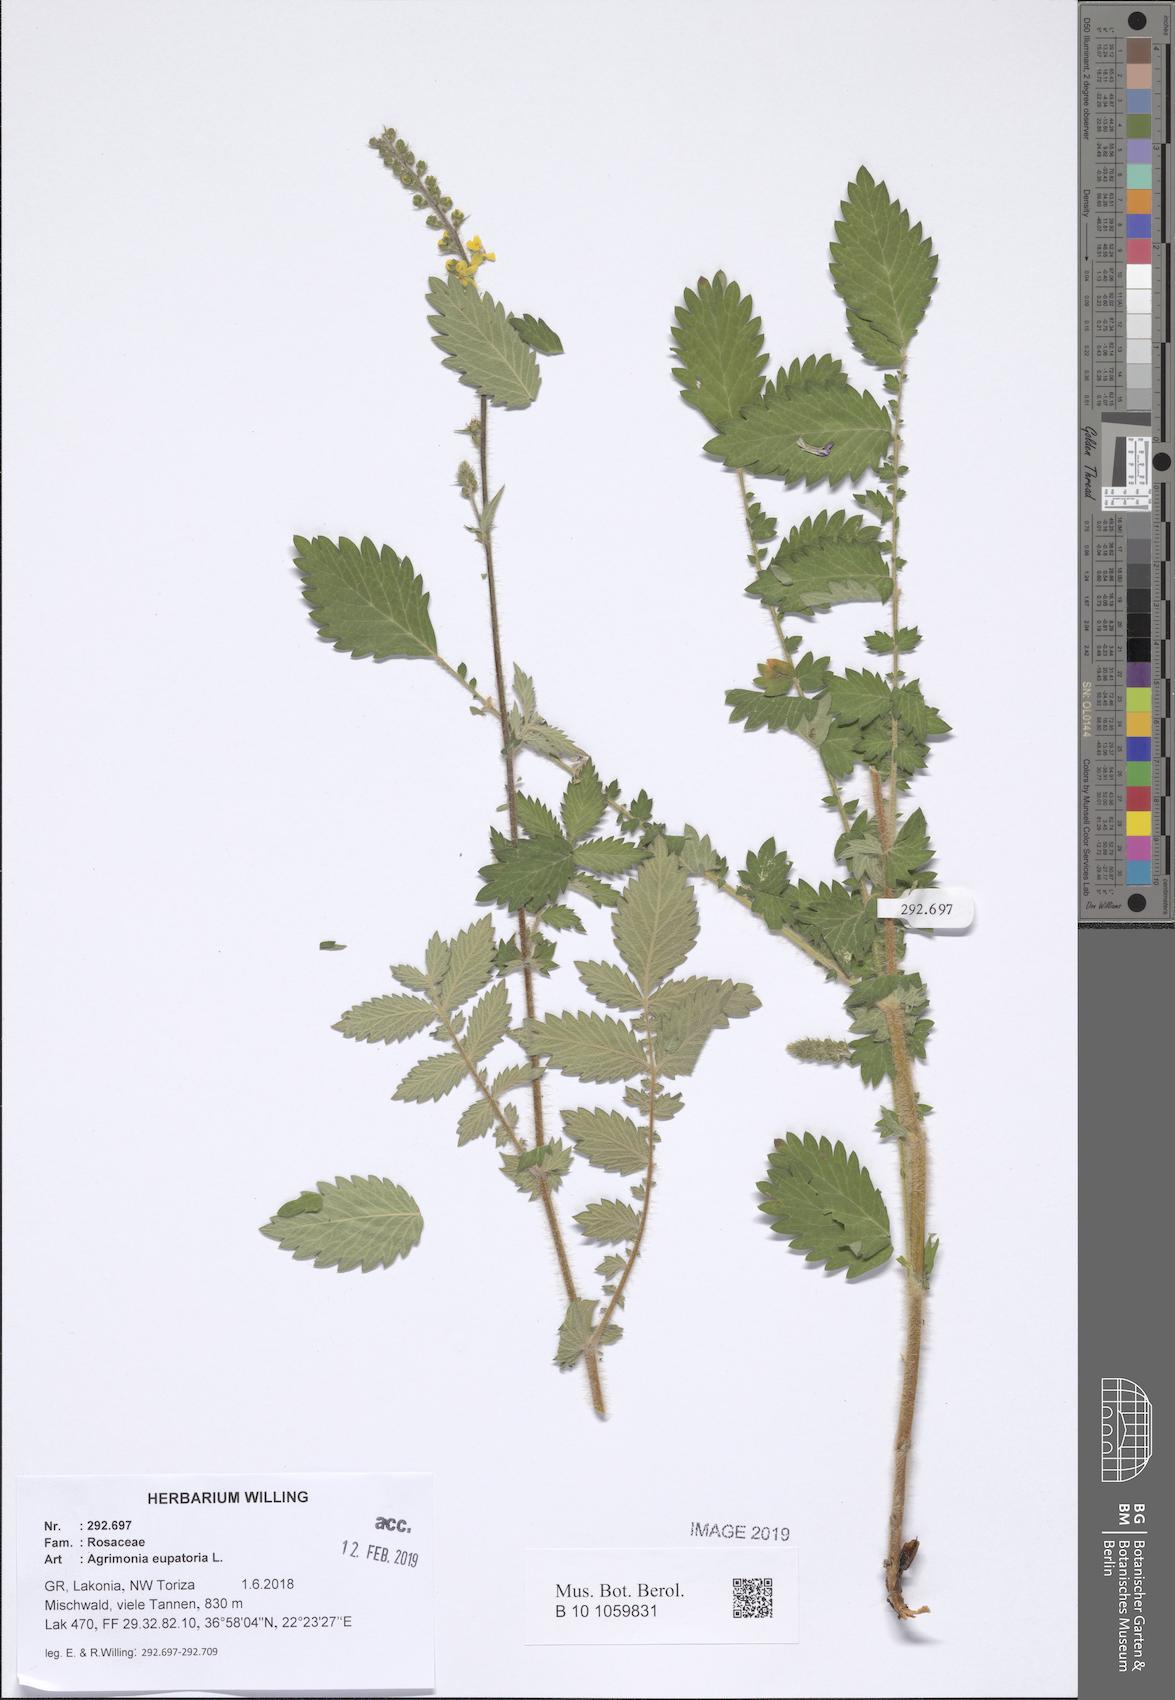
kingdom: Plantae
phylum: Tracheophyta
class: Magnoliopsida
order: Rosales
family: Rosaceae
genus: Agrimonia
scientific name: Agrimonia eupatoria
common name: Agrimony
